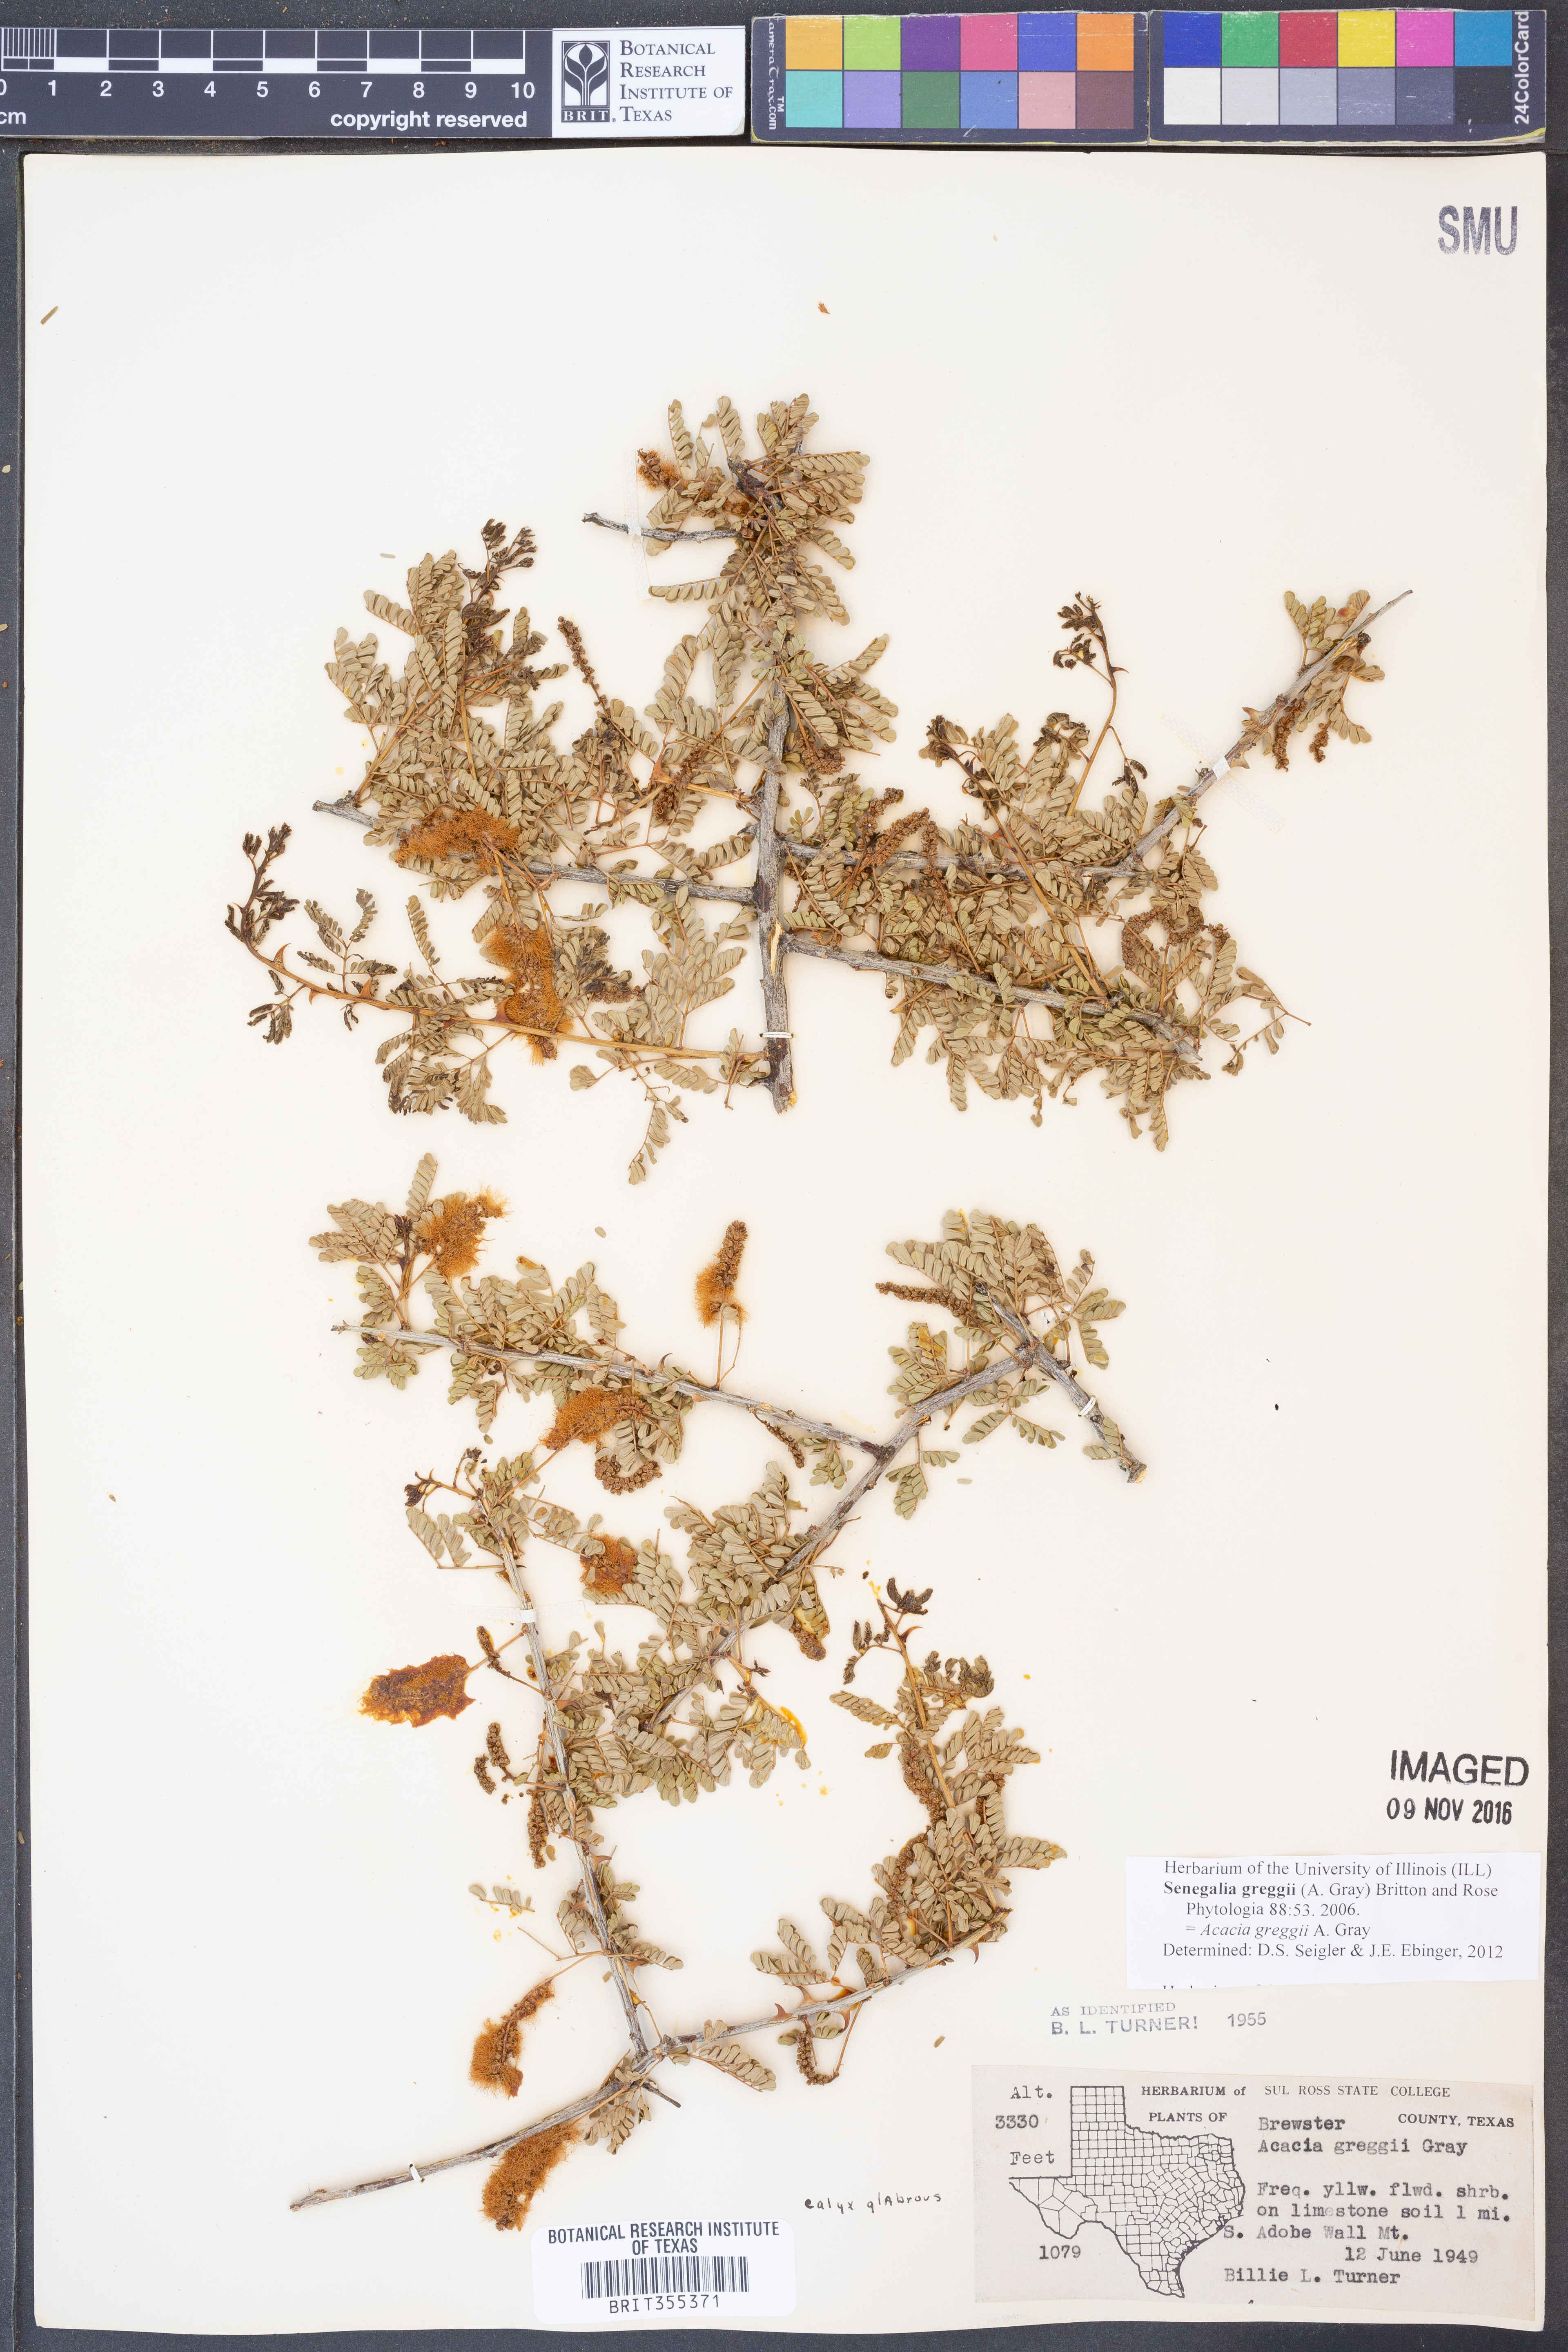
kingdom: Plantae
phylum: Tracheophyta
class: Magnoliopsida
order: Fabales
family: Fabaceae
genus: Senegalia
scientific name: Senegalia greggii
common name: Texas-mimosa
